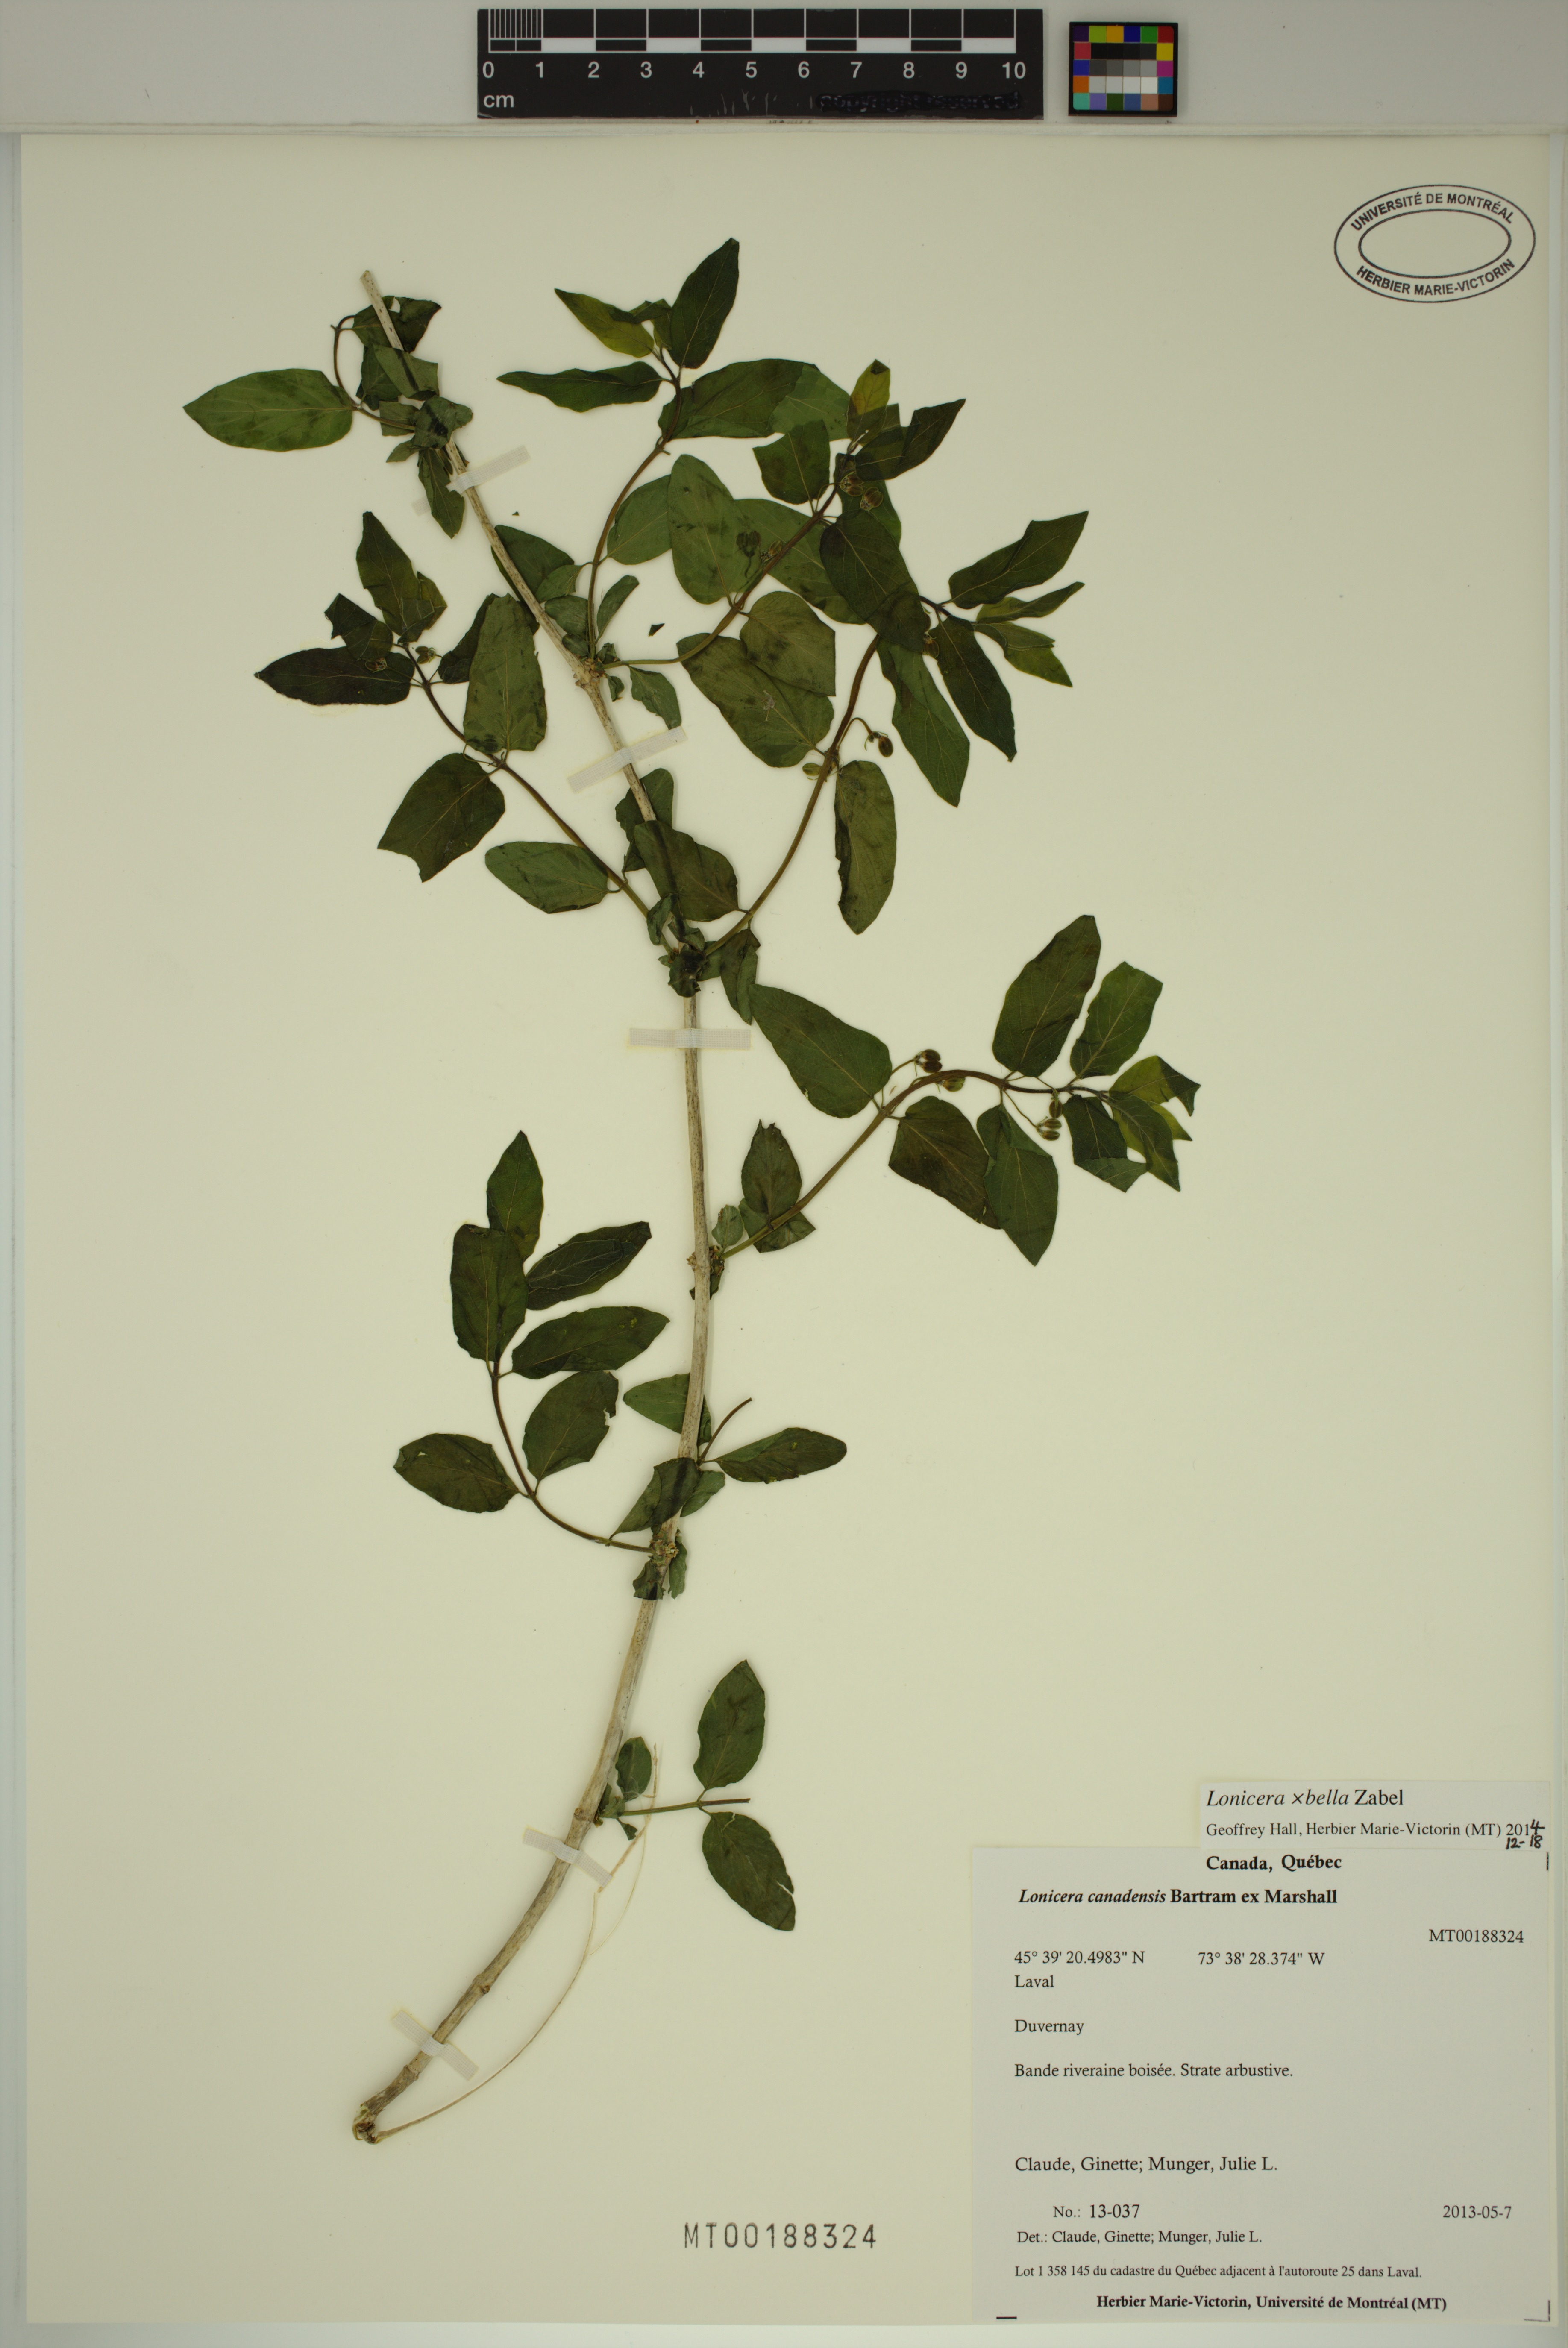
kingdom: Plantae
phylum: Tracheophyta
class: Magnoliopsida
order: Dipsacales
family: Caprifoliaceae
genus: Lonicera
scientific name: Lonicera bella
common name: Bell's honeysuckle
